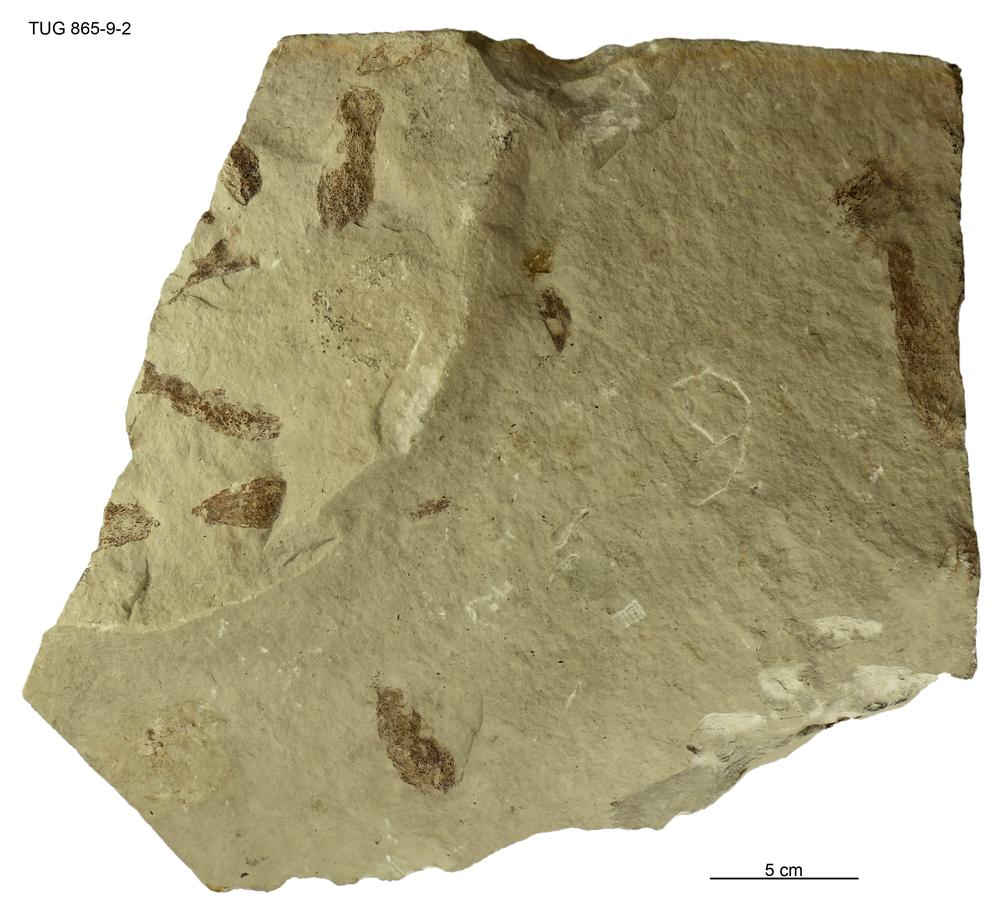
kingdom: Animalia
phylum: Chordata
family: Phlebolepididae
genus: Phlebolepis
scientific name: Phlebolepis elegans
